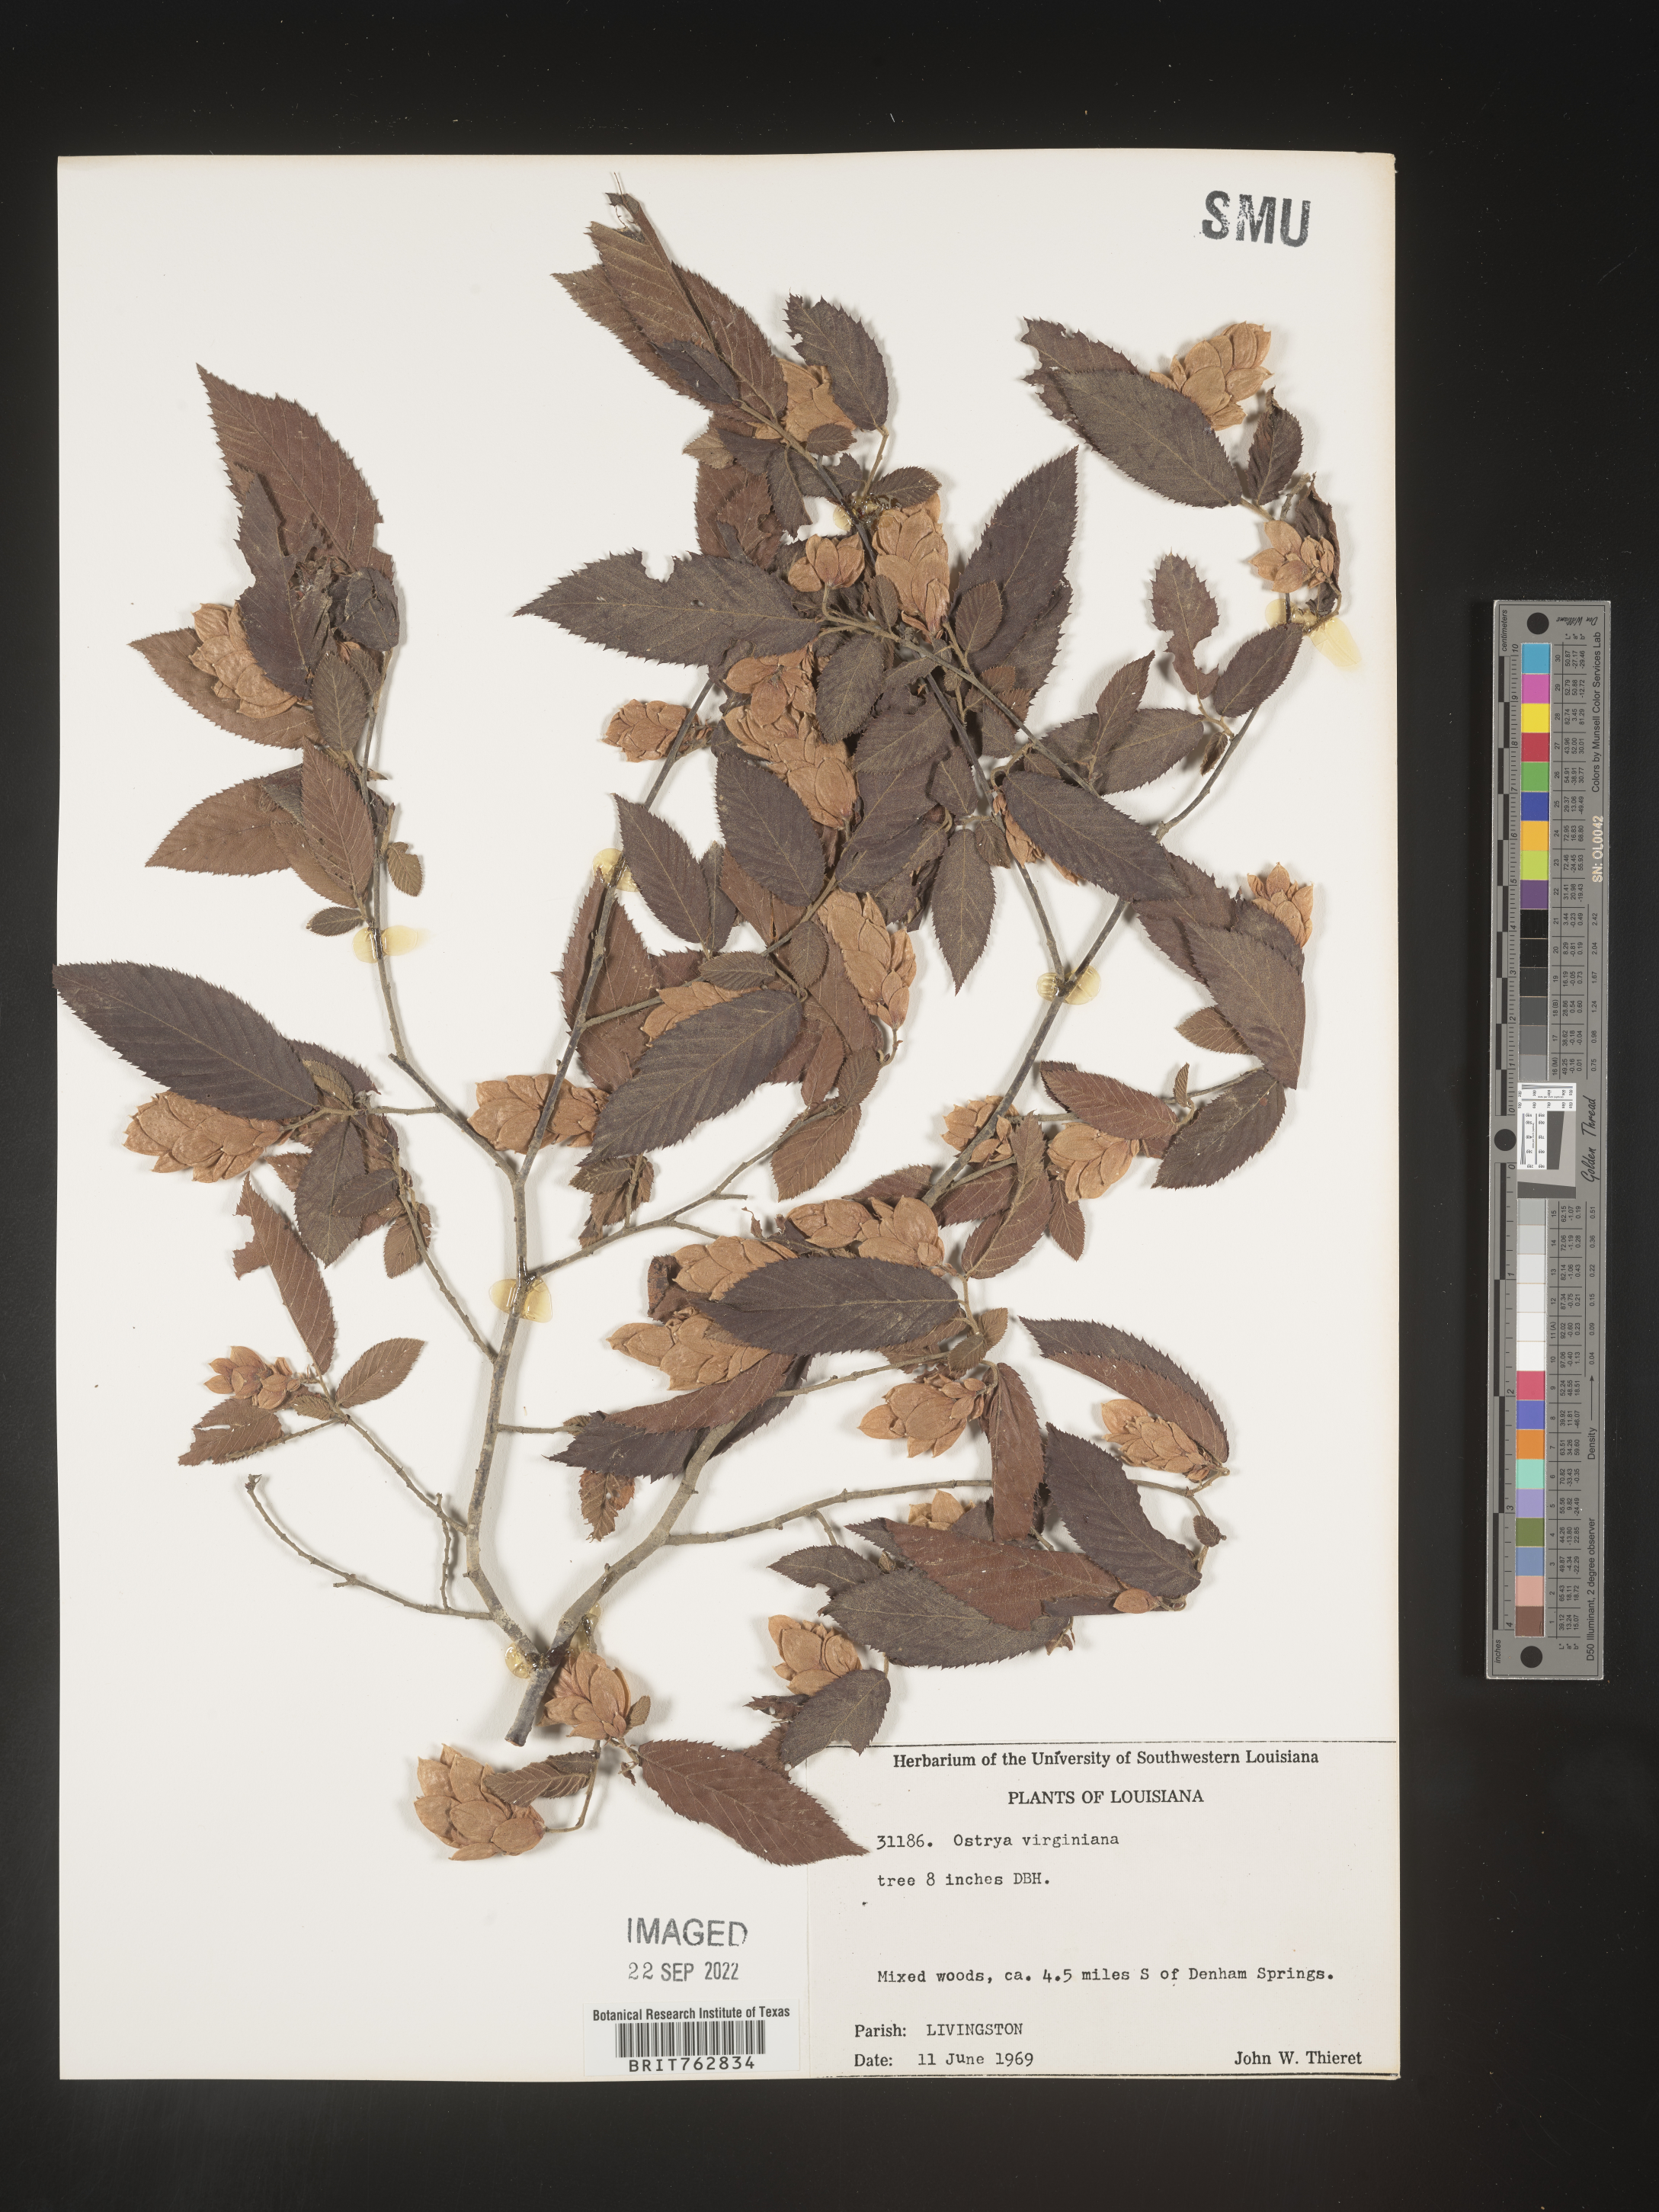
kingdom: Plantae
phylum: Tracheophyta
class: Magnoliopsida
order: Fagales
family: Betulaceae
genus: Ostrya
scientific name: Ostrya virginiana
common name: Ironwood
